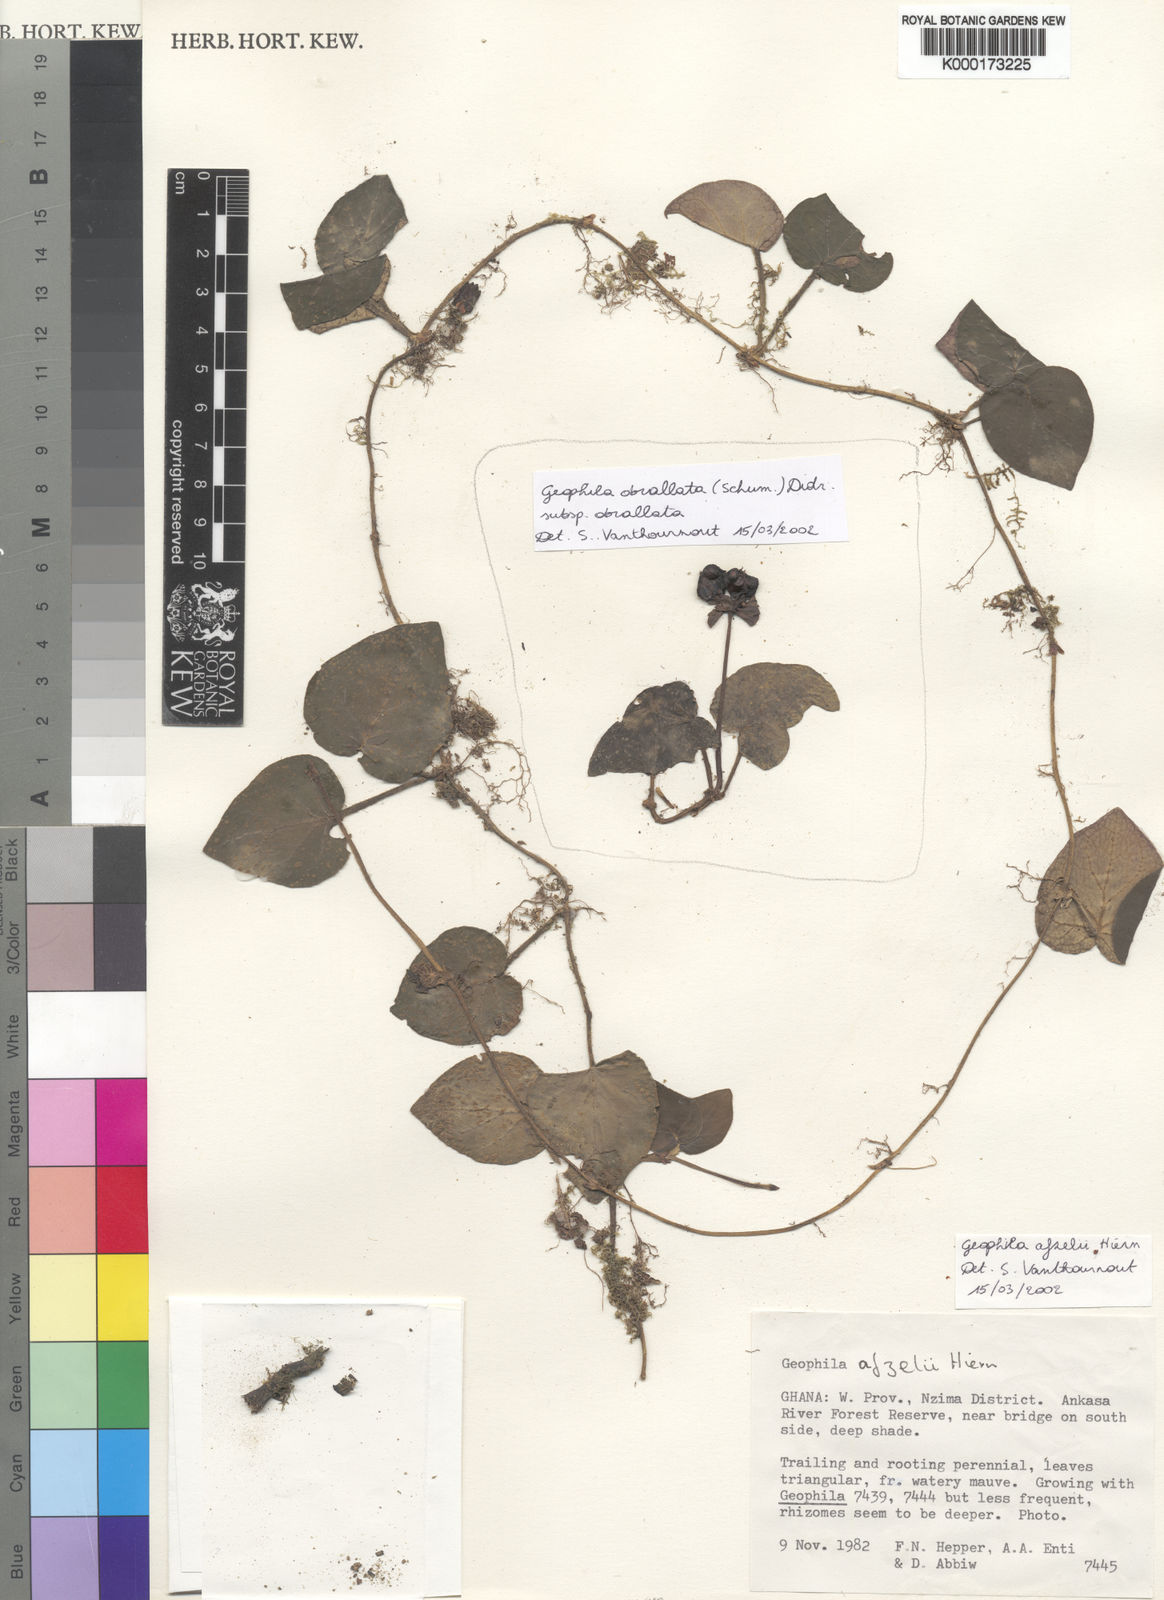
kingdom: Plantae
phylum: Tracheophyta
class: Magnoliopsida
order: Gentianales
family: Rubiaceae
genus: Geophila
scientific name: Geophila afzelii
